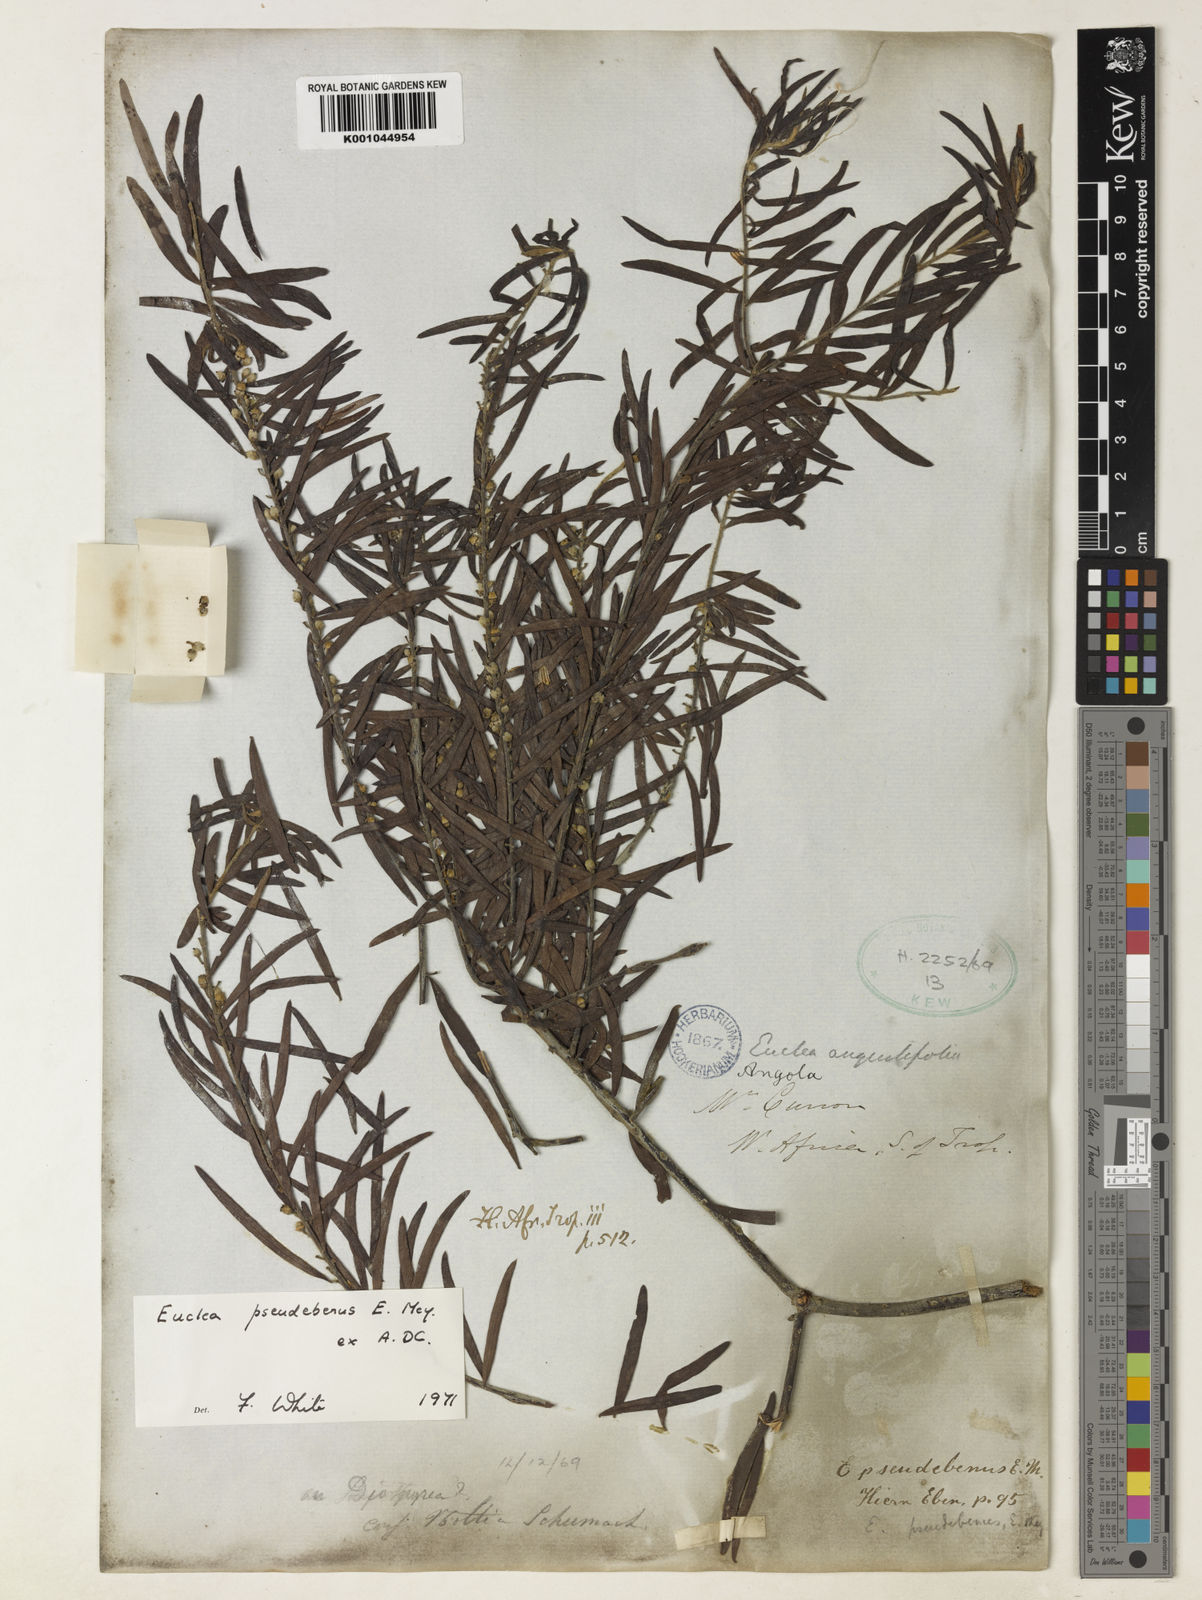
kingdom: Plantae
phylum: Tracheophyta
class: Magnoliopsida
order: Ericales
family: Ebenaceae
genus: Euclea
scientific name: Euclea pseudebenus
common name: Black ebony
